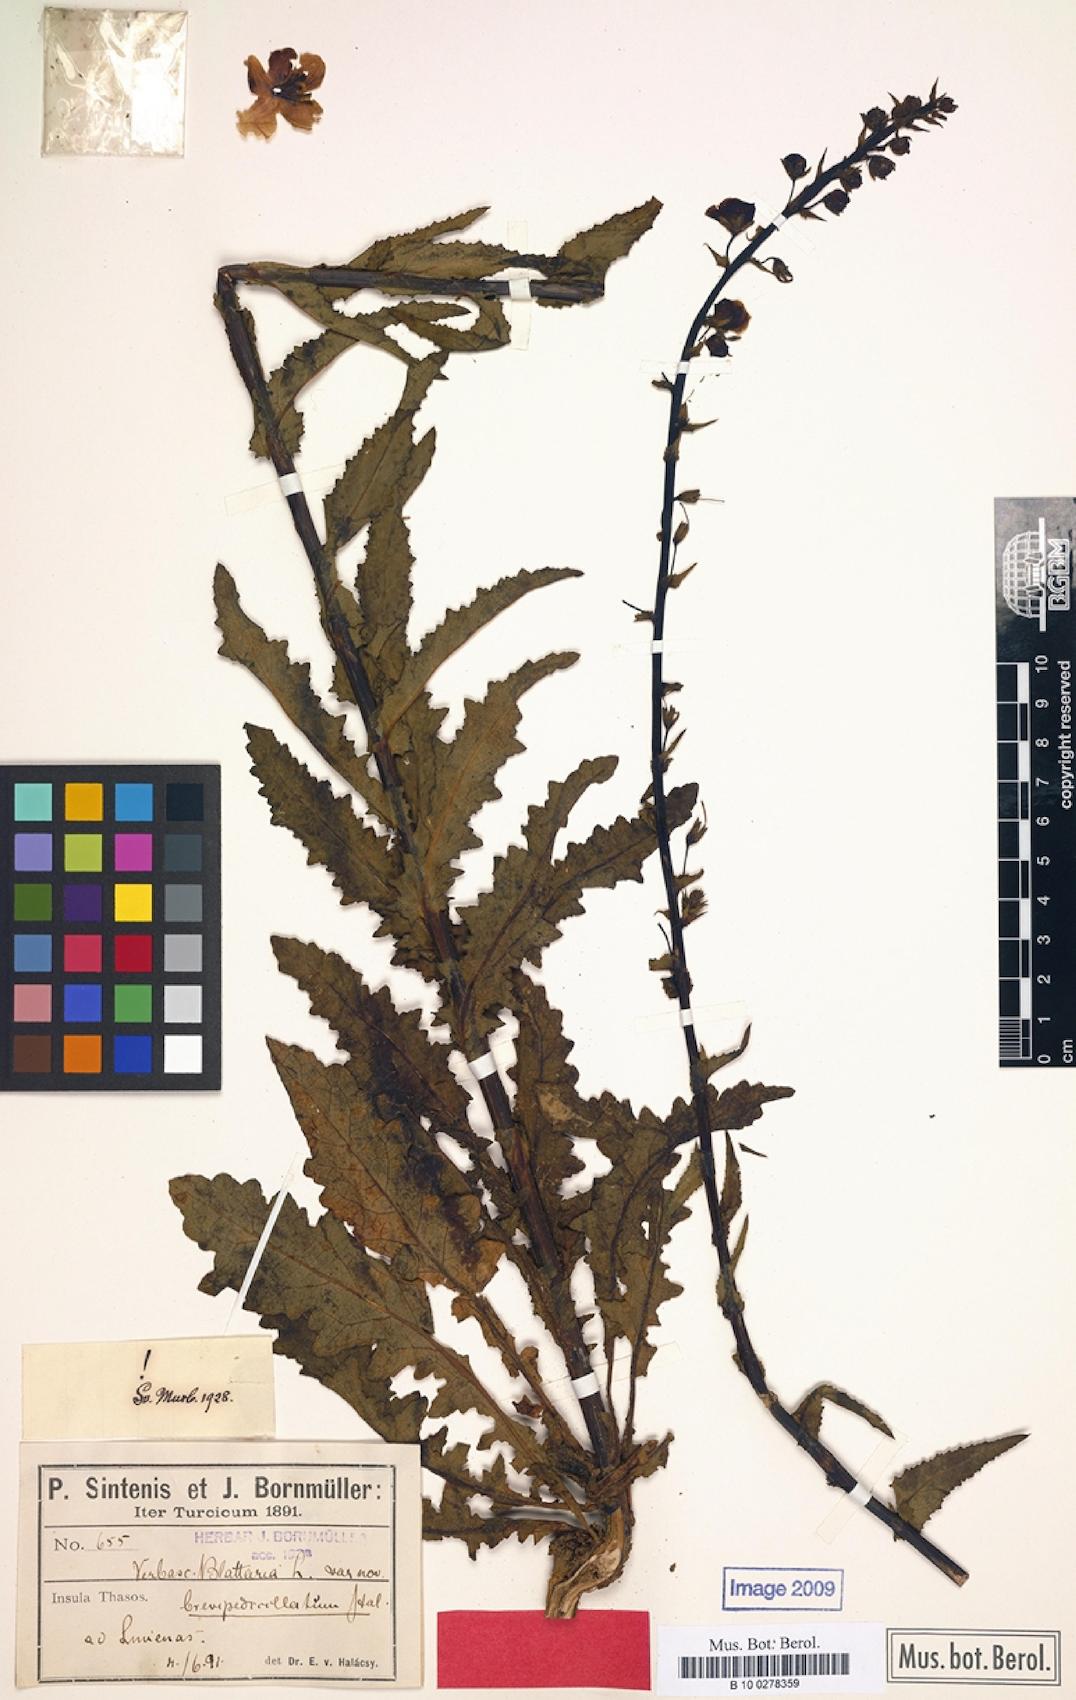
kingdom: Plantae
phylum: Tracheophyta
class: Magnoliopsida
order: Lamiales
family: Scrophulariaceae
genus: Verbascum
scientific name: Verbascum blattaria
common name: Moth mullein
